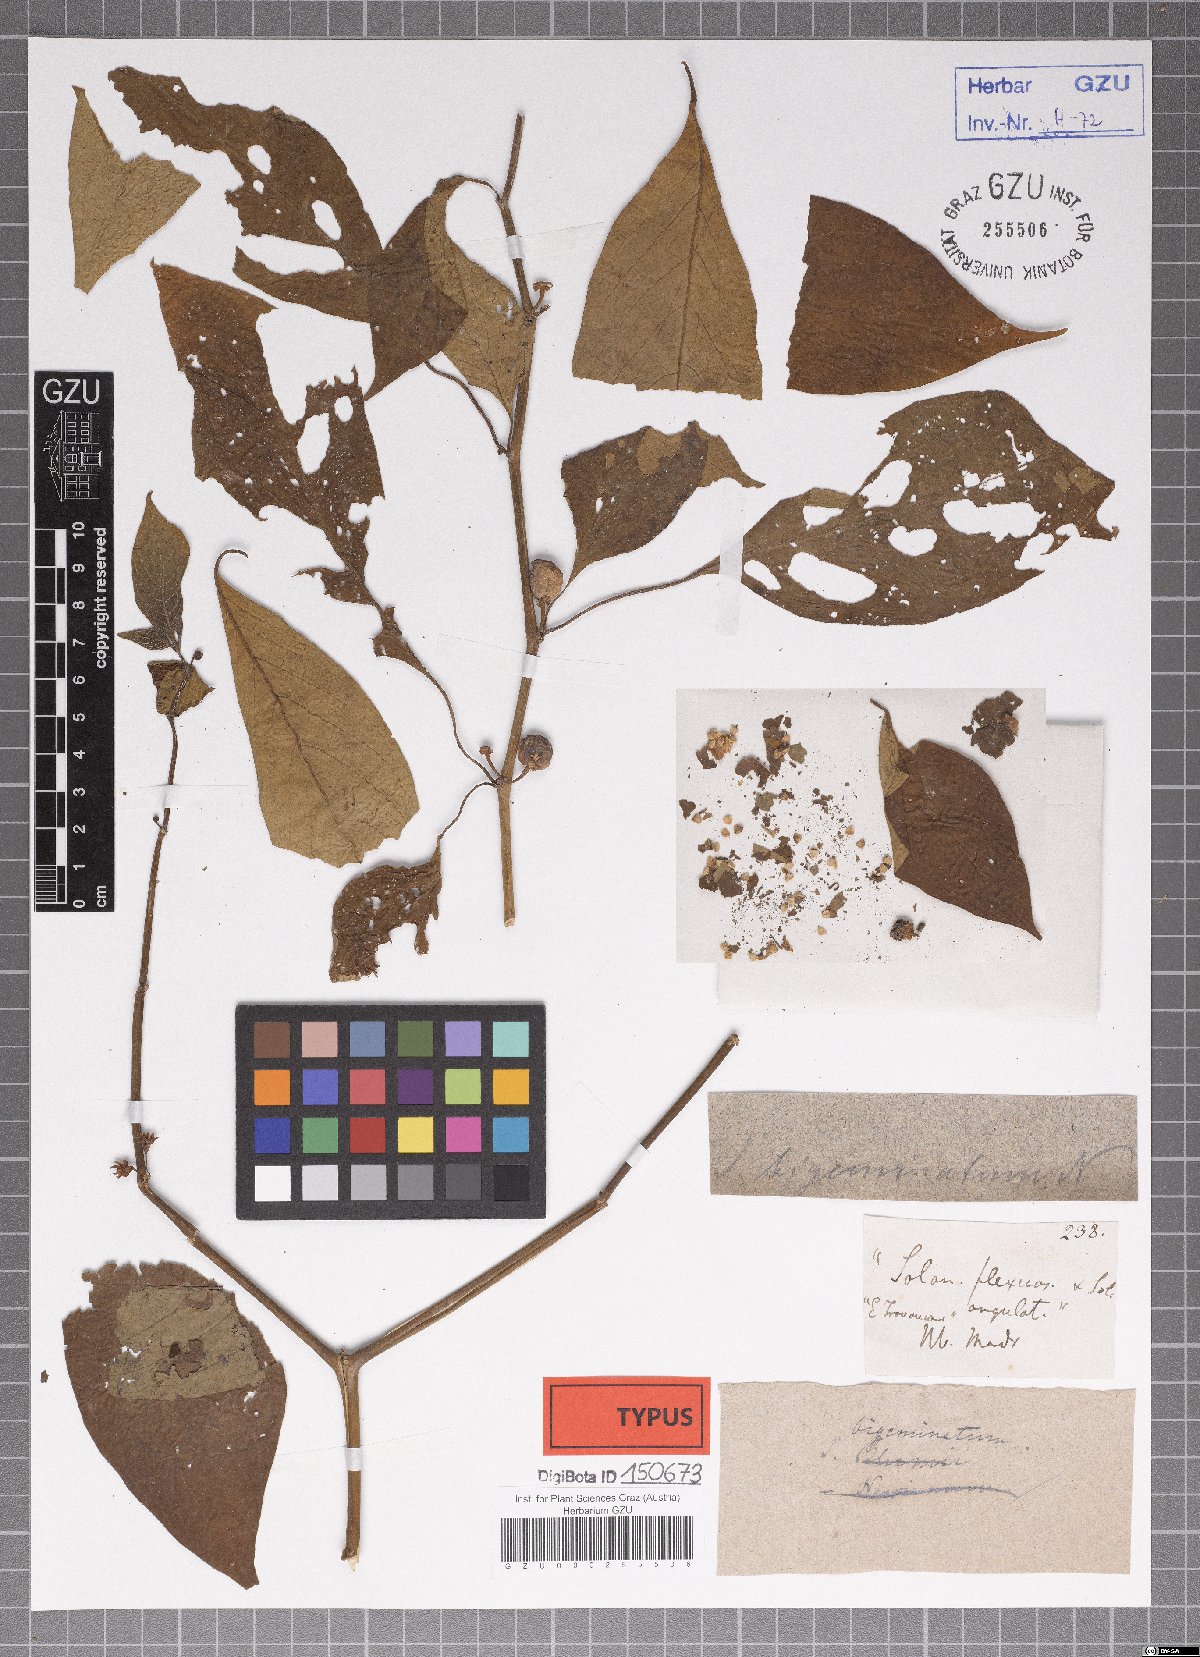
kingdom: Plantae
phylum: Tracheophyta
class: Magnoliopsida
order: Solanales
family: Solanaceae
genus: Lycianthes
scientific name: Lycianthes bigeminata
